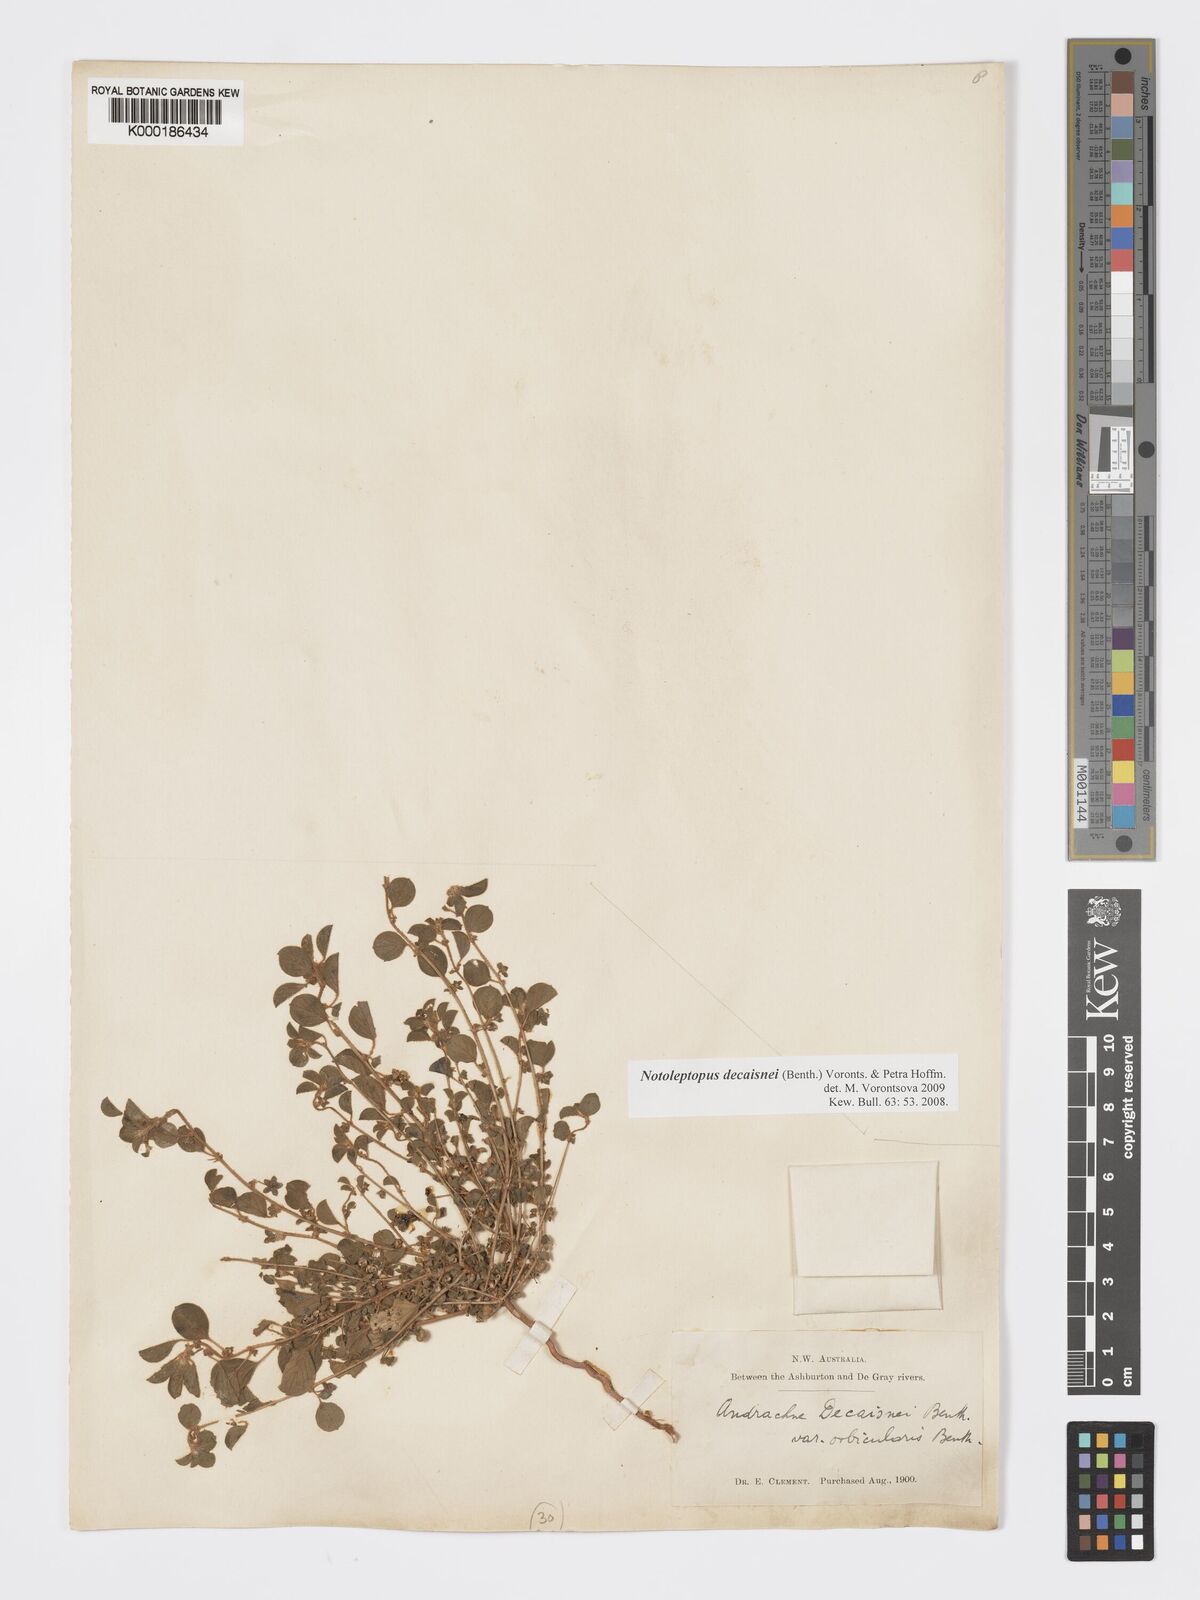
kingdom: Plantae
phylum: Tracheophyta
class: Magnoliopsida
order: Malpighiales
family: Phyllanthaceae
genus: Notoleptopus
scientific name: Notoleptopus decaisnei
